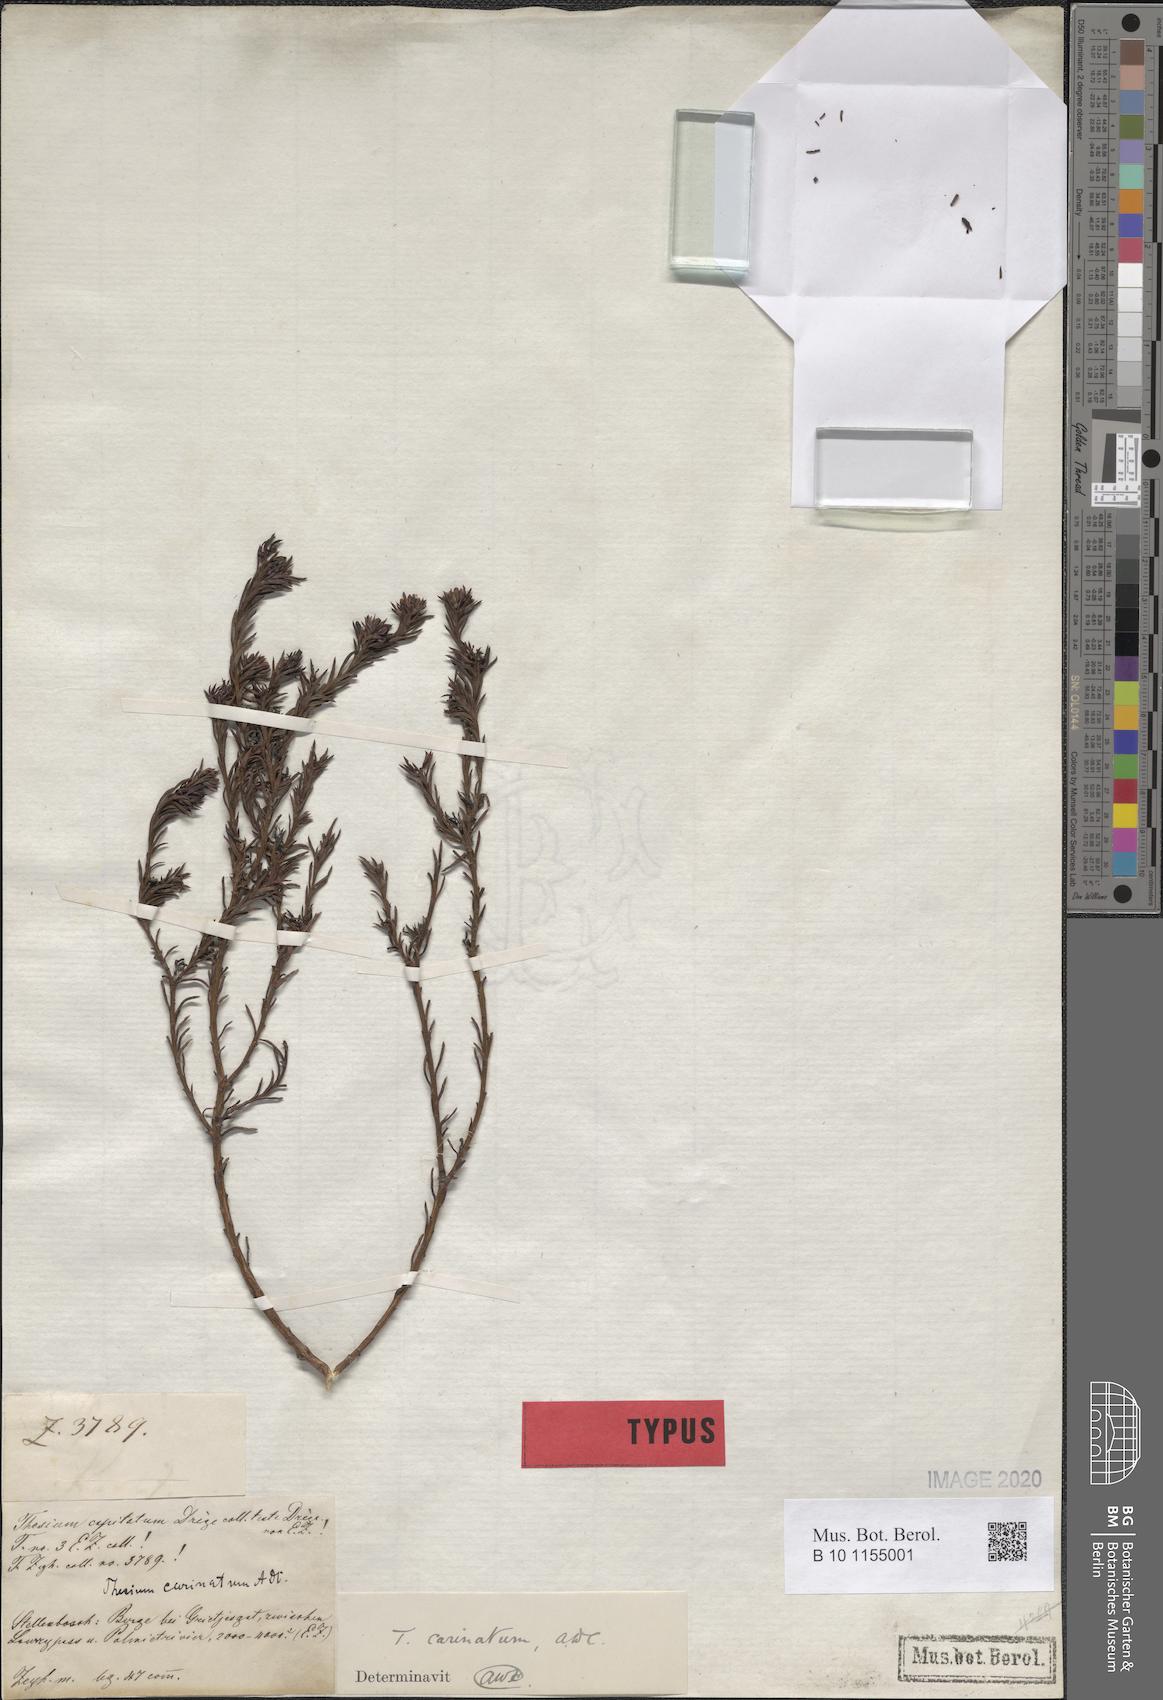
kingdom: Plantae
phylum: Tracheophyta
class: Magnoliopsida
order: Santalales
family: Thesiaceae
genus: Thesium
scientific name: Thesium carinatum
